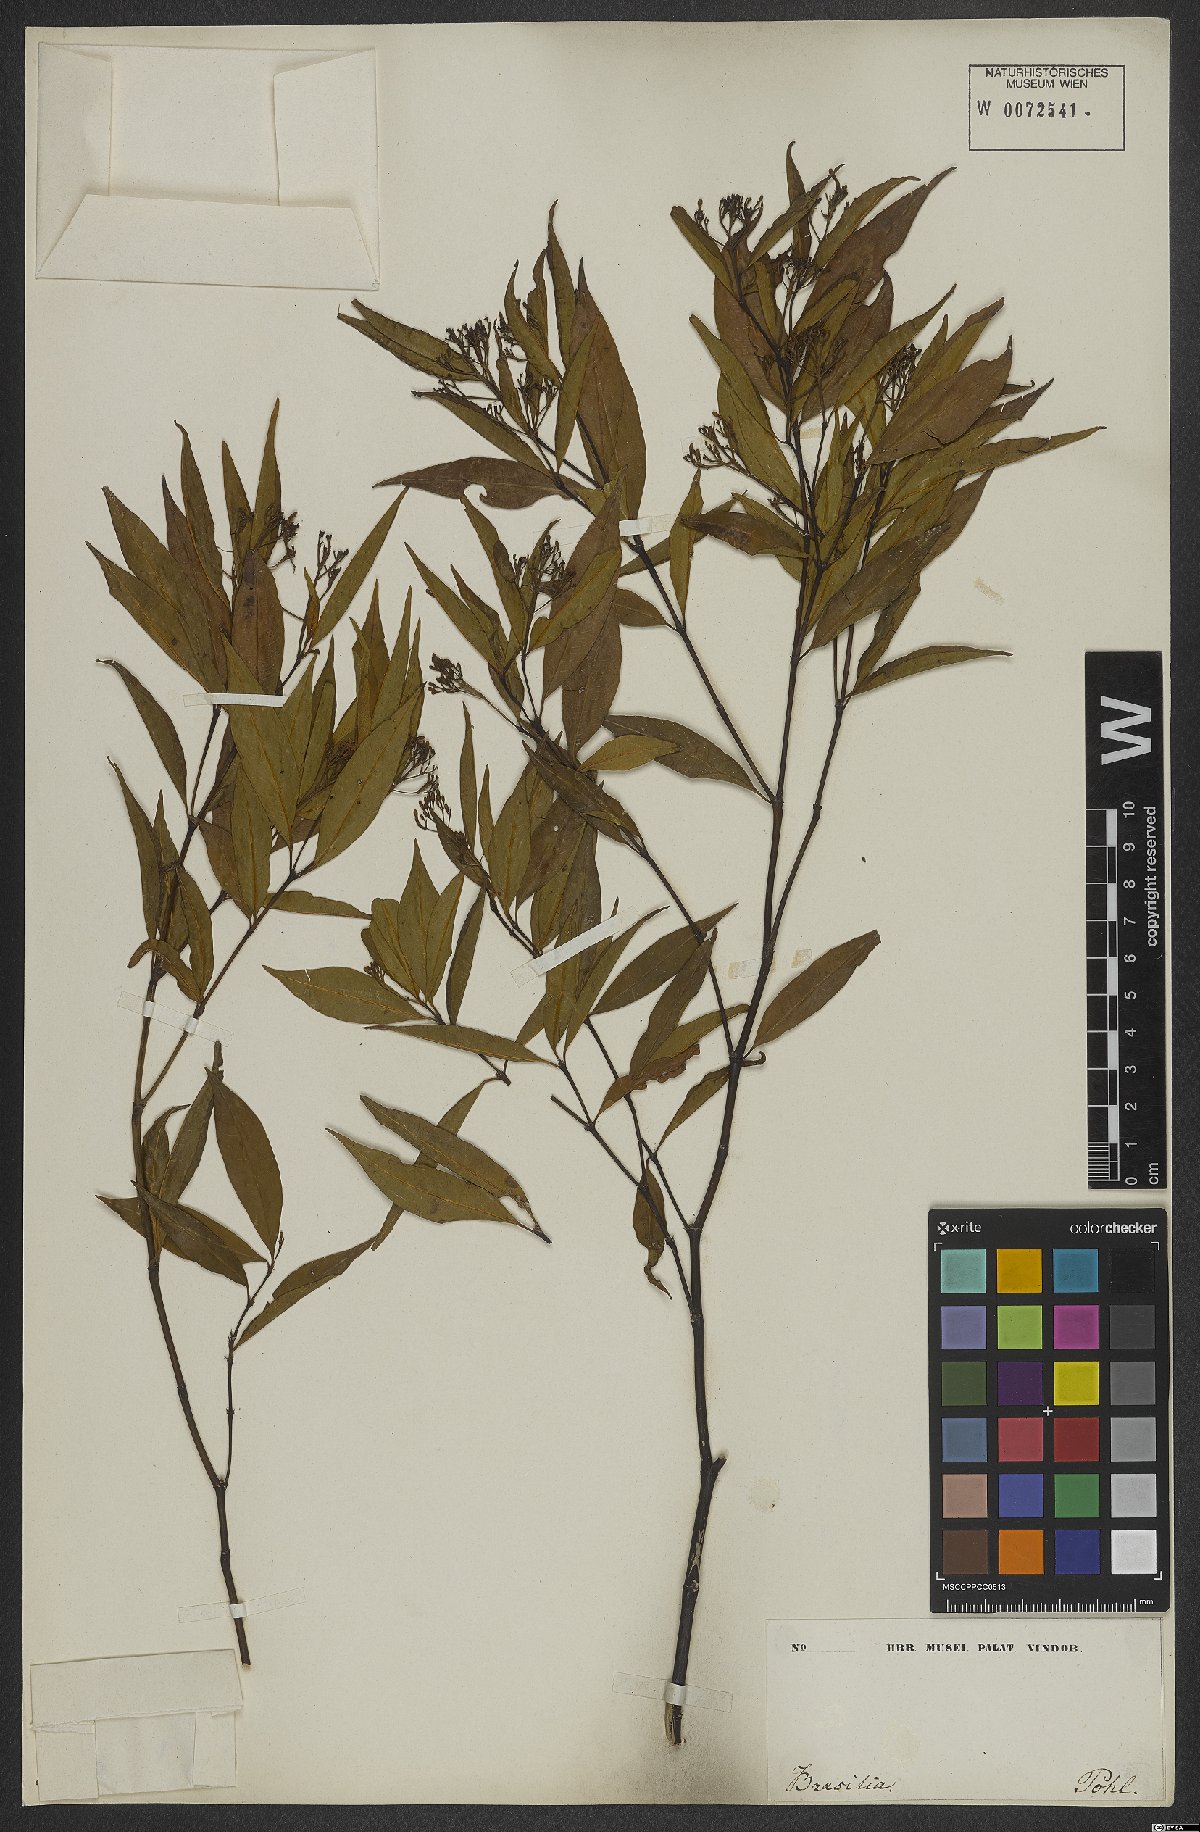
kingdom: Plantae
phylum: Tracheophyta
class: Magnoliopsida
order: Gentianales
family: Rubiaceae
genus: Palicourea
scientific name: Palicourea
